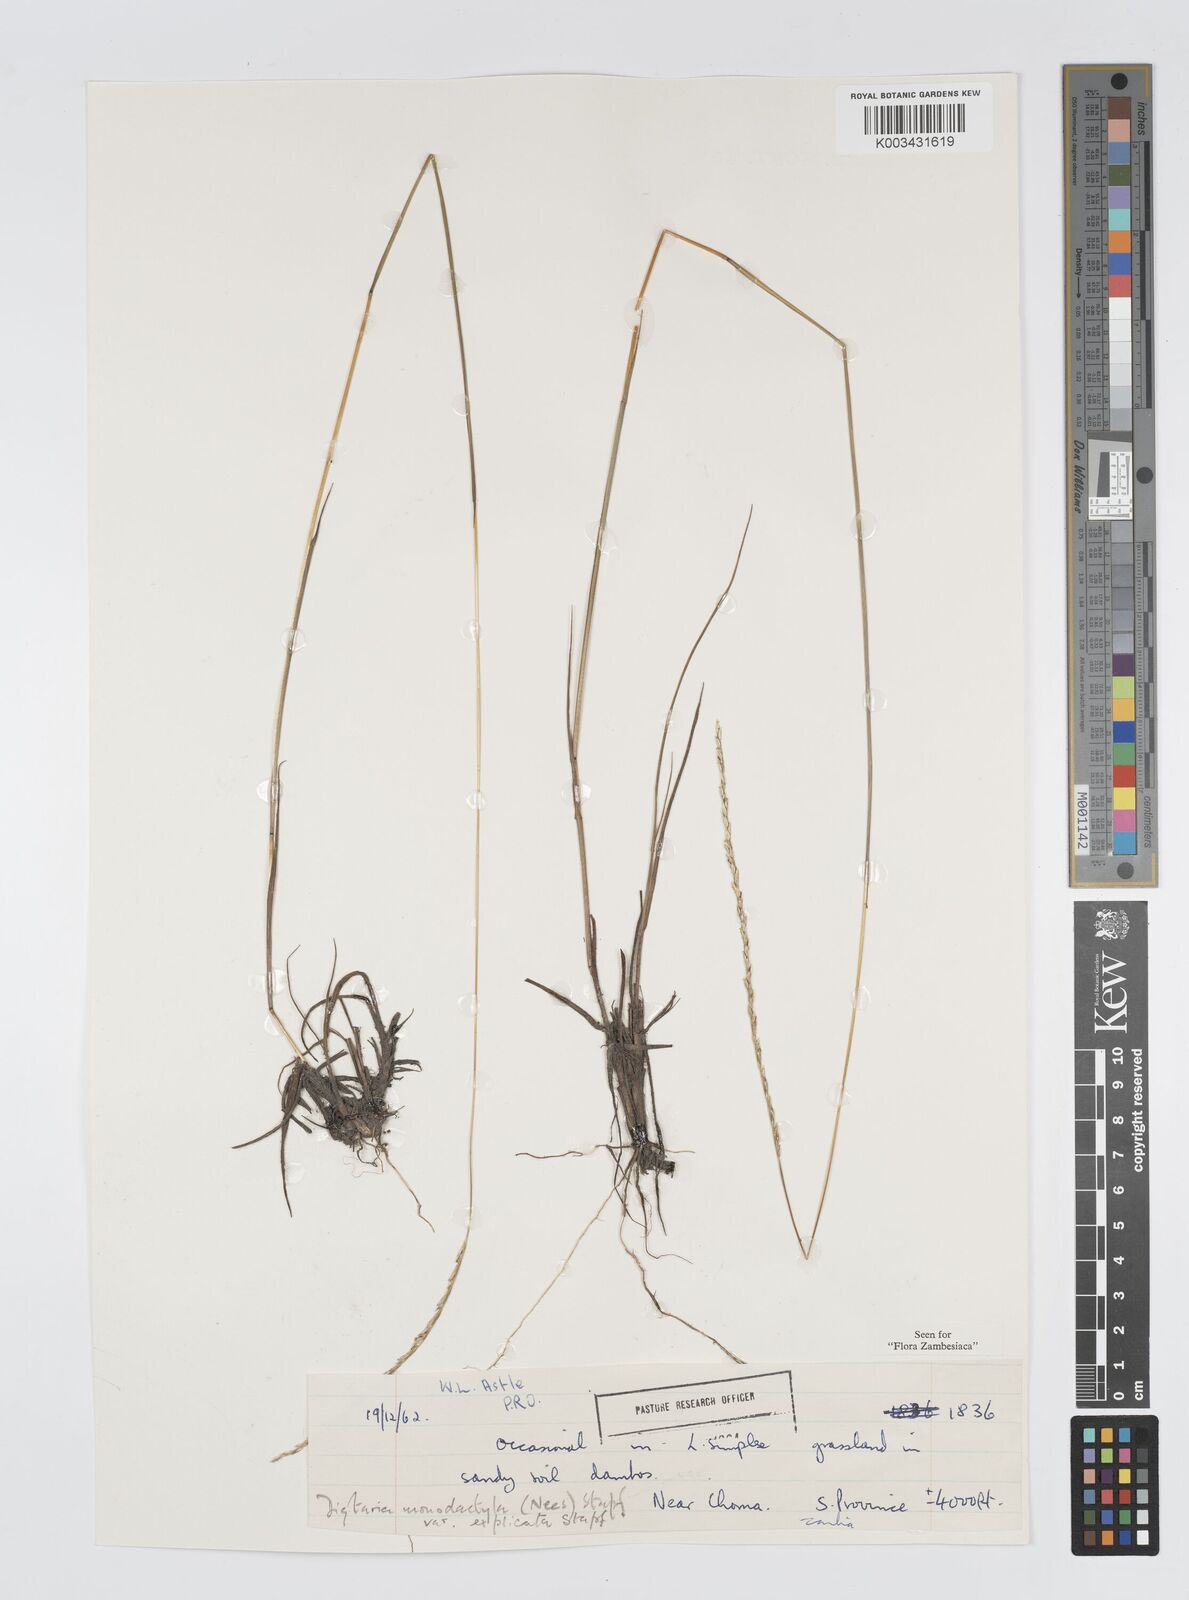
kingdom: Plantae
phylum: Tracheophyta
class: Liliopsida
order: Poales
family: Poaceae
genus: Digitaria
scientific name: Digitaria monodactyla
